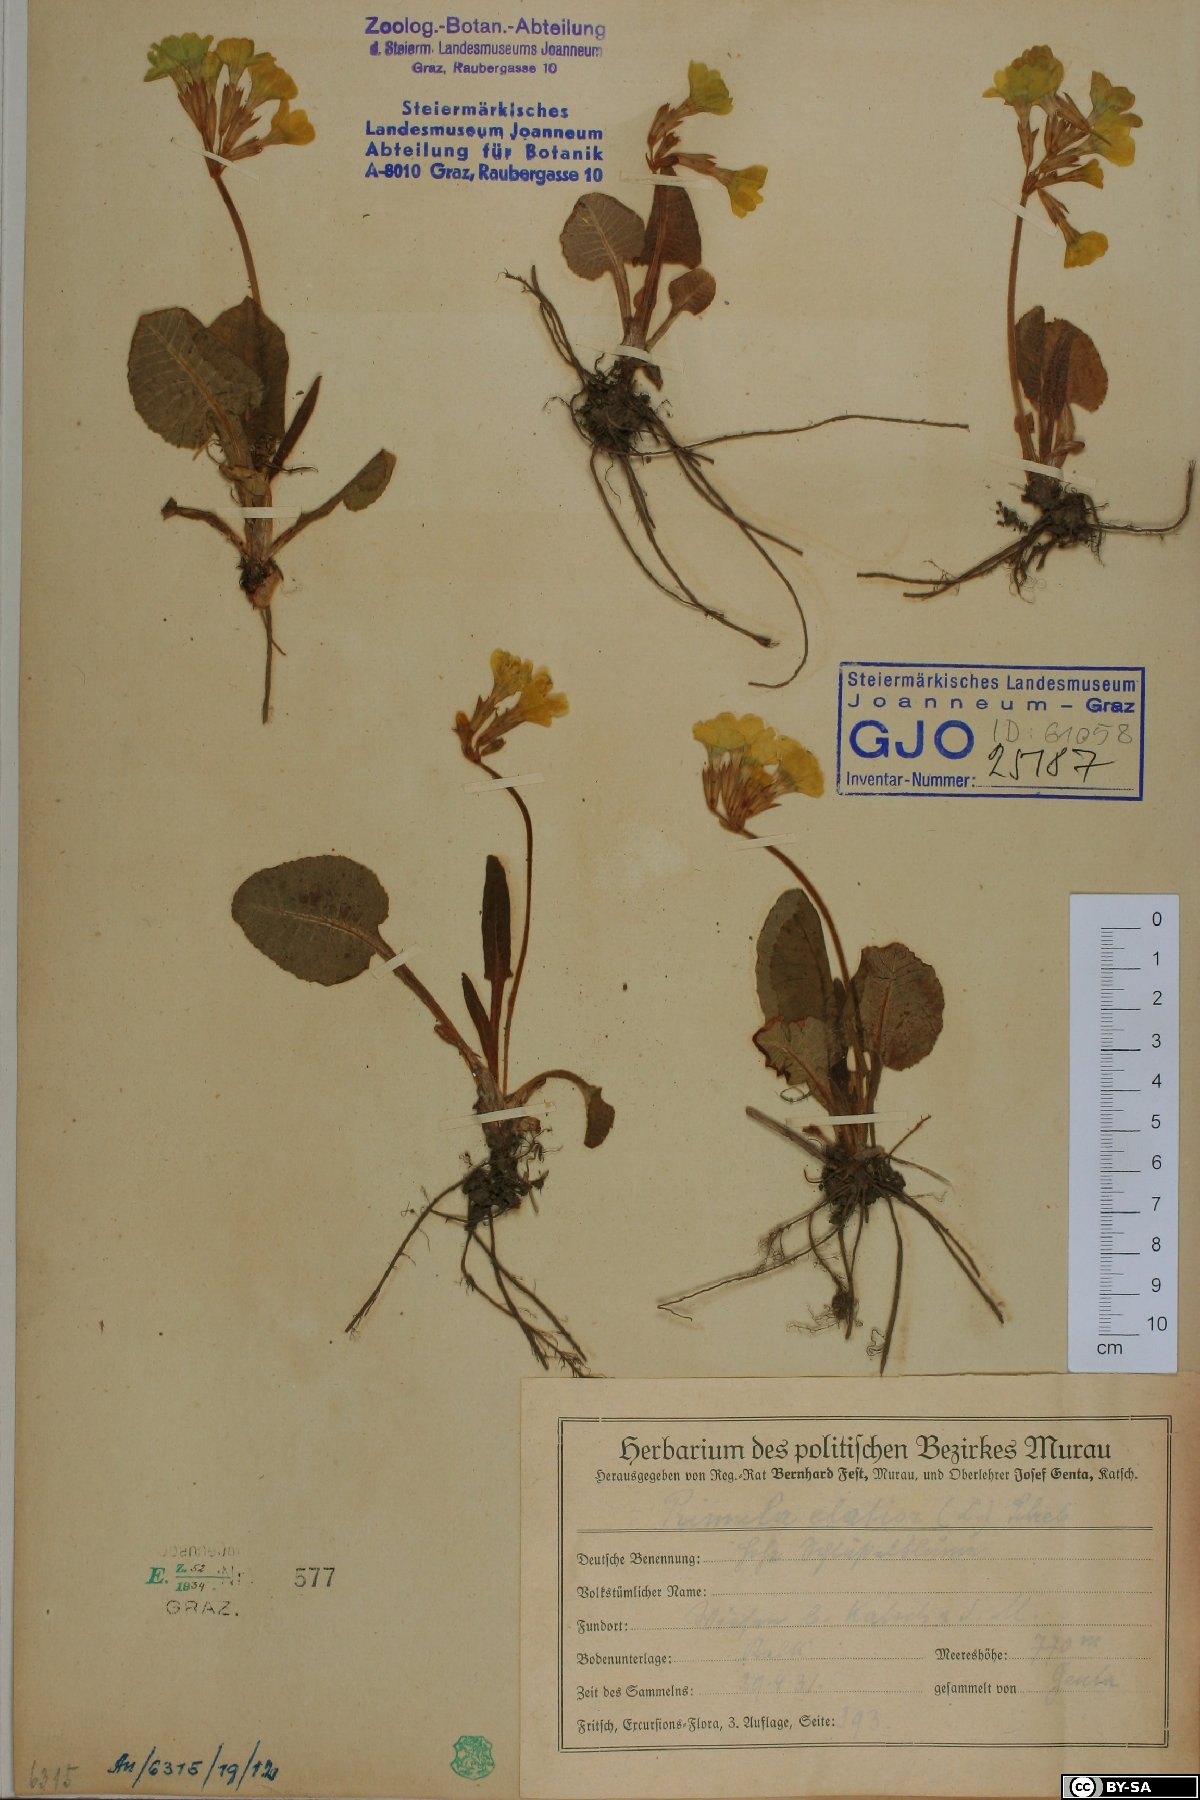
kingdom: Plantae
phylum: Tracheophyta
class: Magnoliopsida
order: Ericales
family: Primulaceae
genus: Primula
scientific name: Primula elatior
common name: Oxlip
